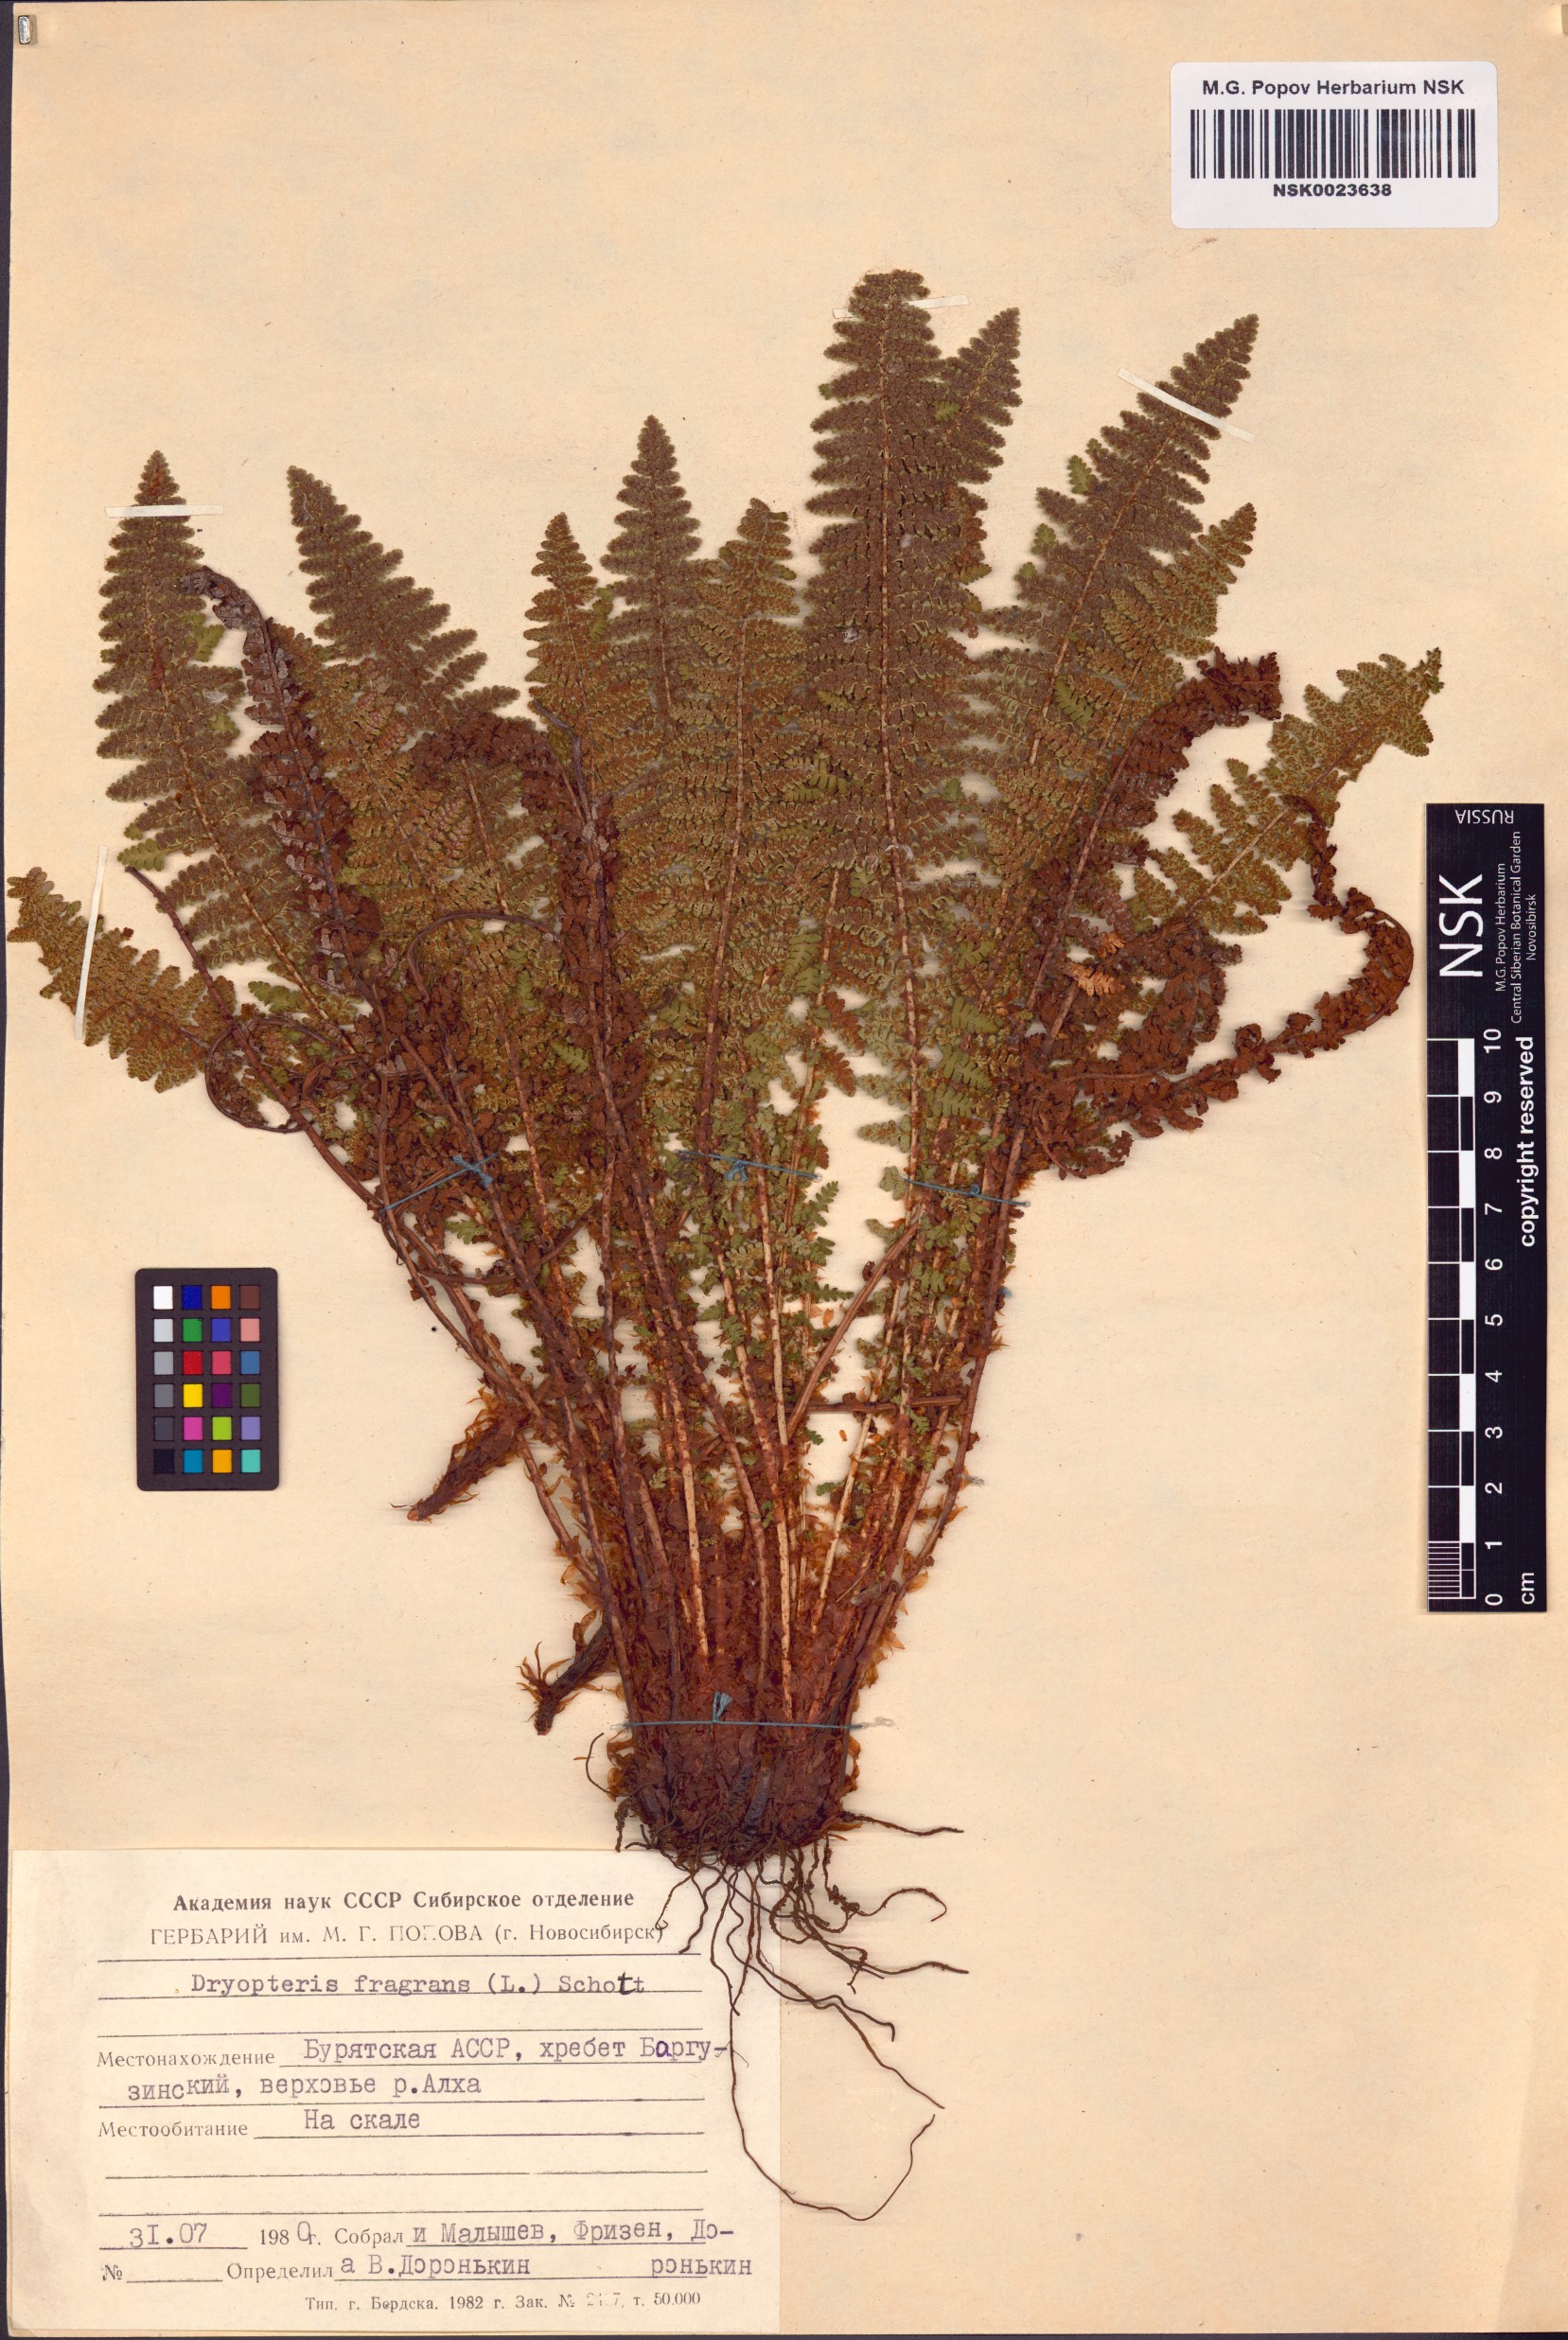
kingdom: Plantae
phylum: Tracheophyta
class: Polypodiopsida
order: Polypodiales
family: Dryopteridaceae
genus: Dryopteris
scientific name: Dryopteris fragrans
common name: Fragrant wood fern
